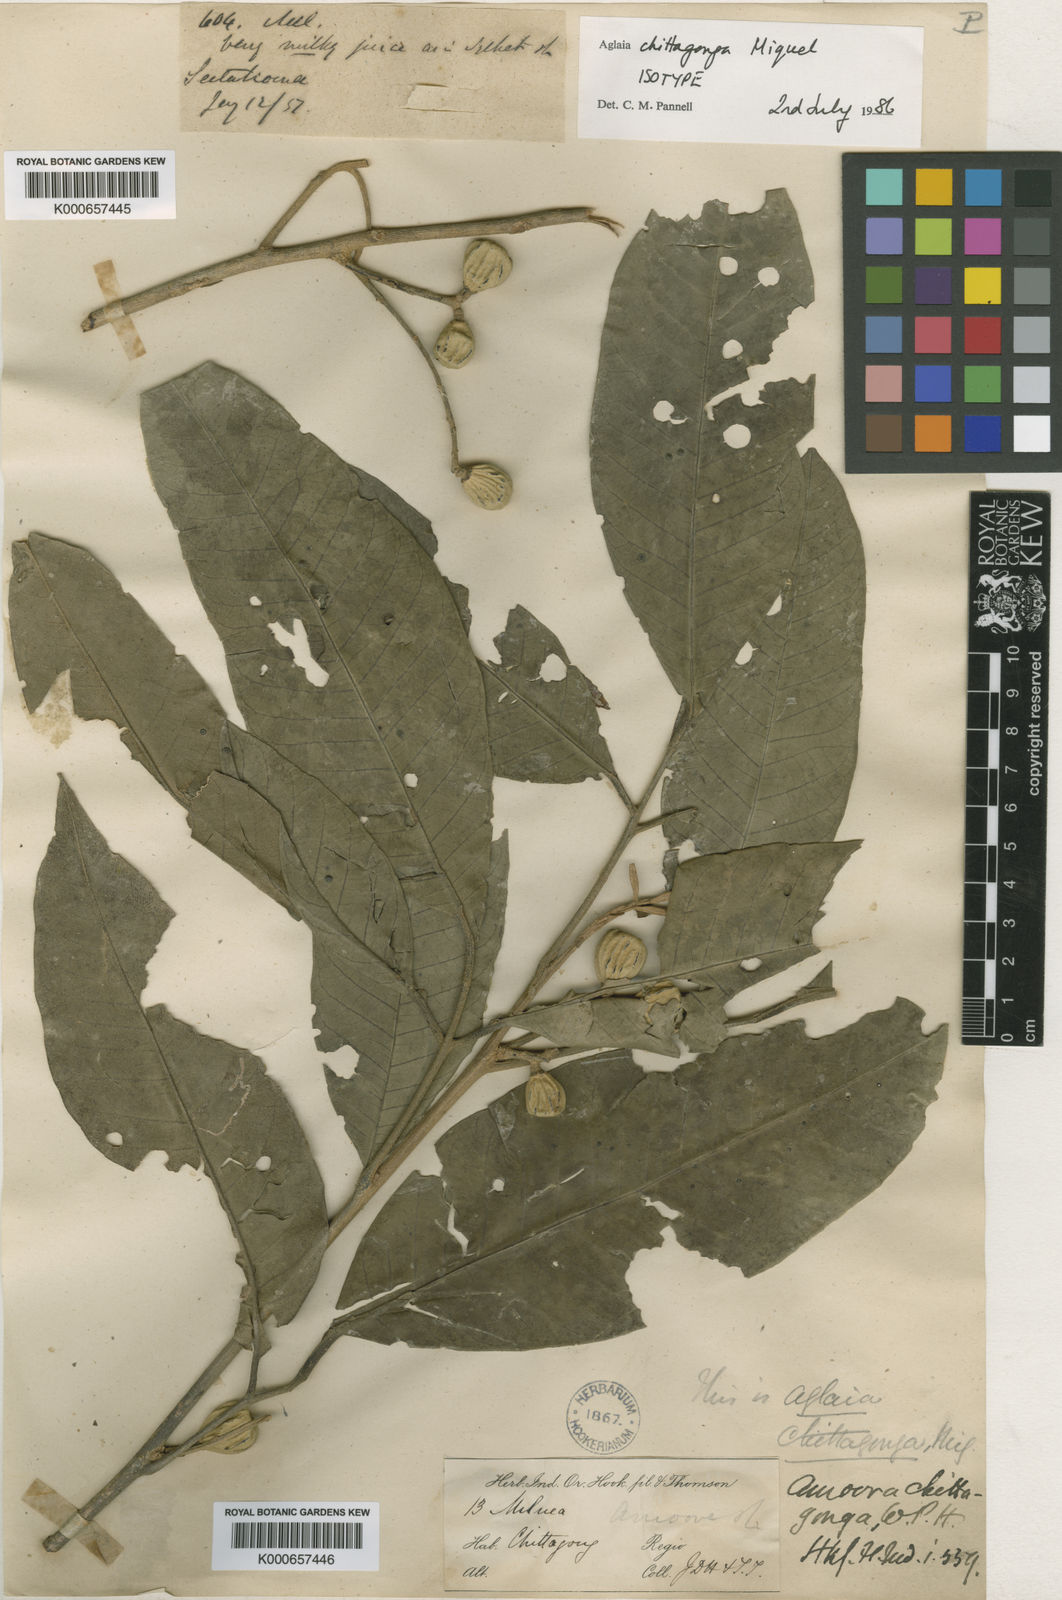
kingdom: Plantae
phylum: Tracheophyta
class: Magnoliopsida
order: Sapindales
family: Meliaceae
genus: Aglaia
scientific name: Aglaia chittagonga
